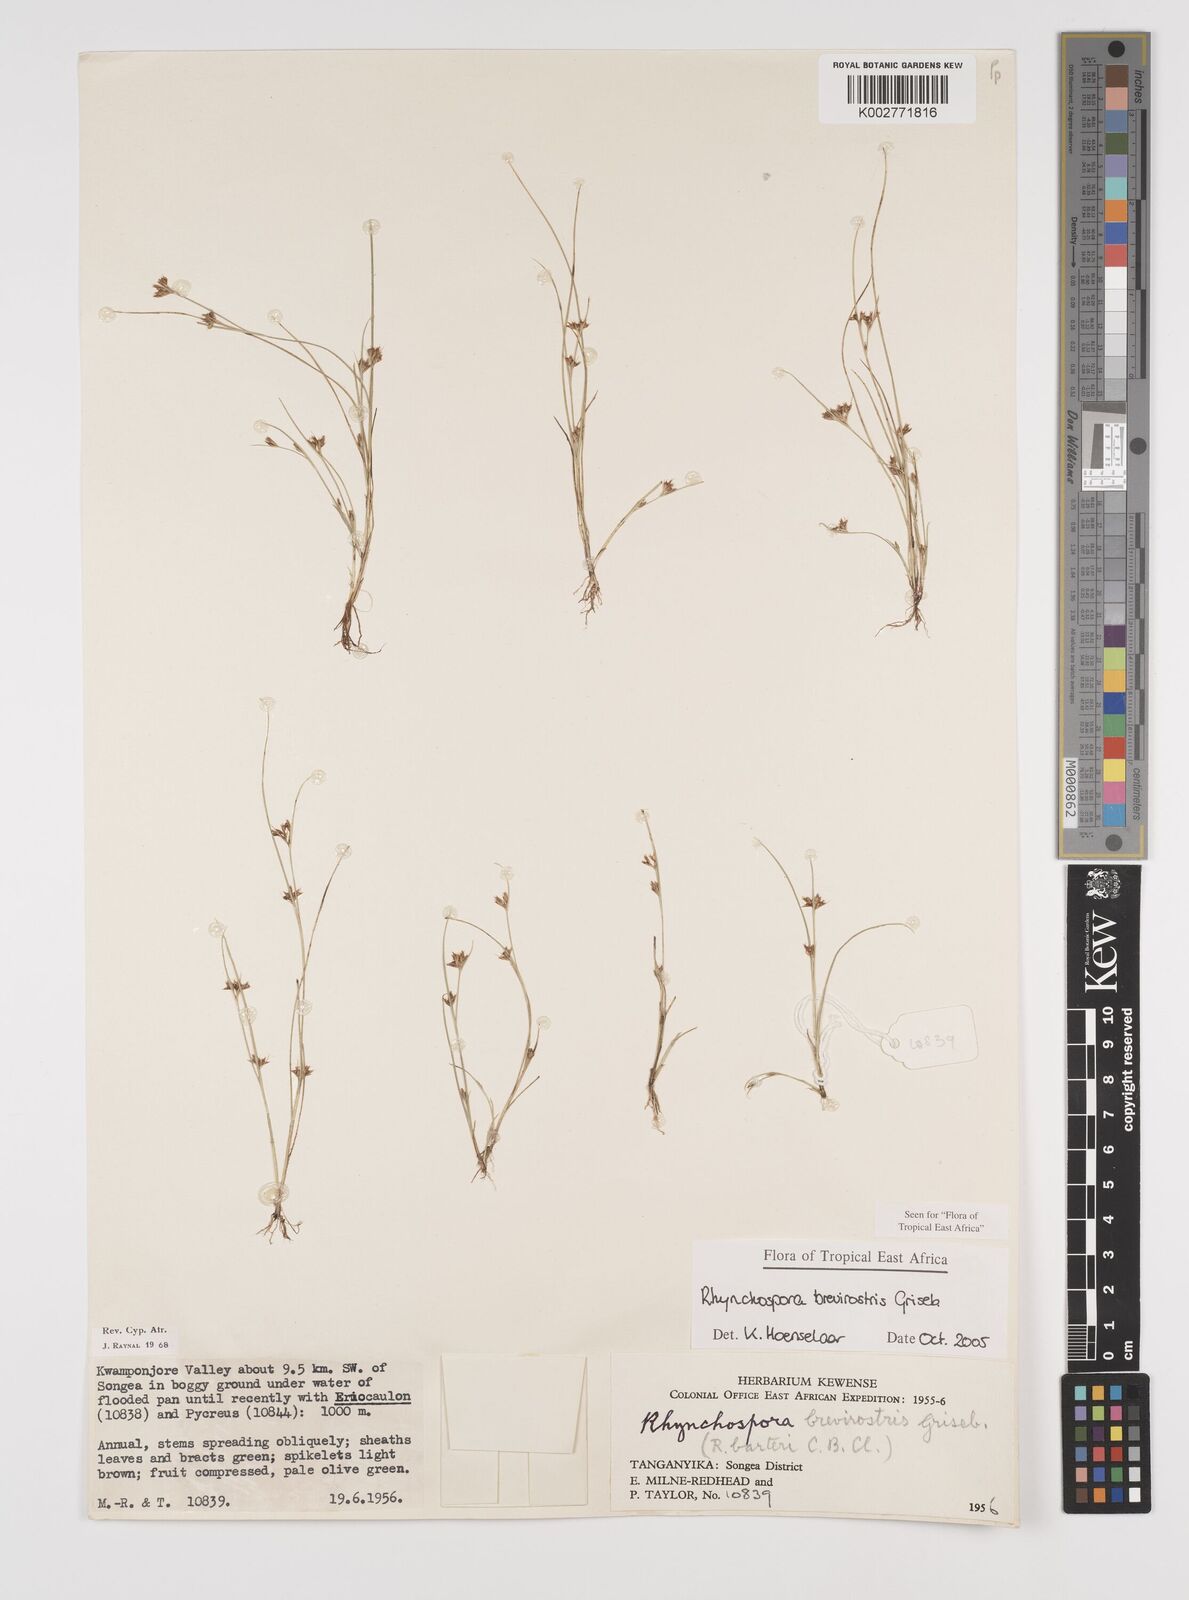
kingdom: Plantae
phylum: Tracheophyta
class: Liliopsida
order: Poales
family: Cyperaceae
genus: Rhynchospora
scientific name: Rhynchospora brevirostris
